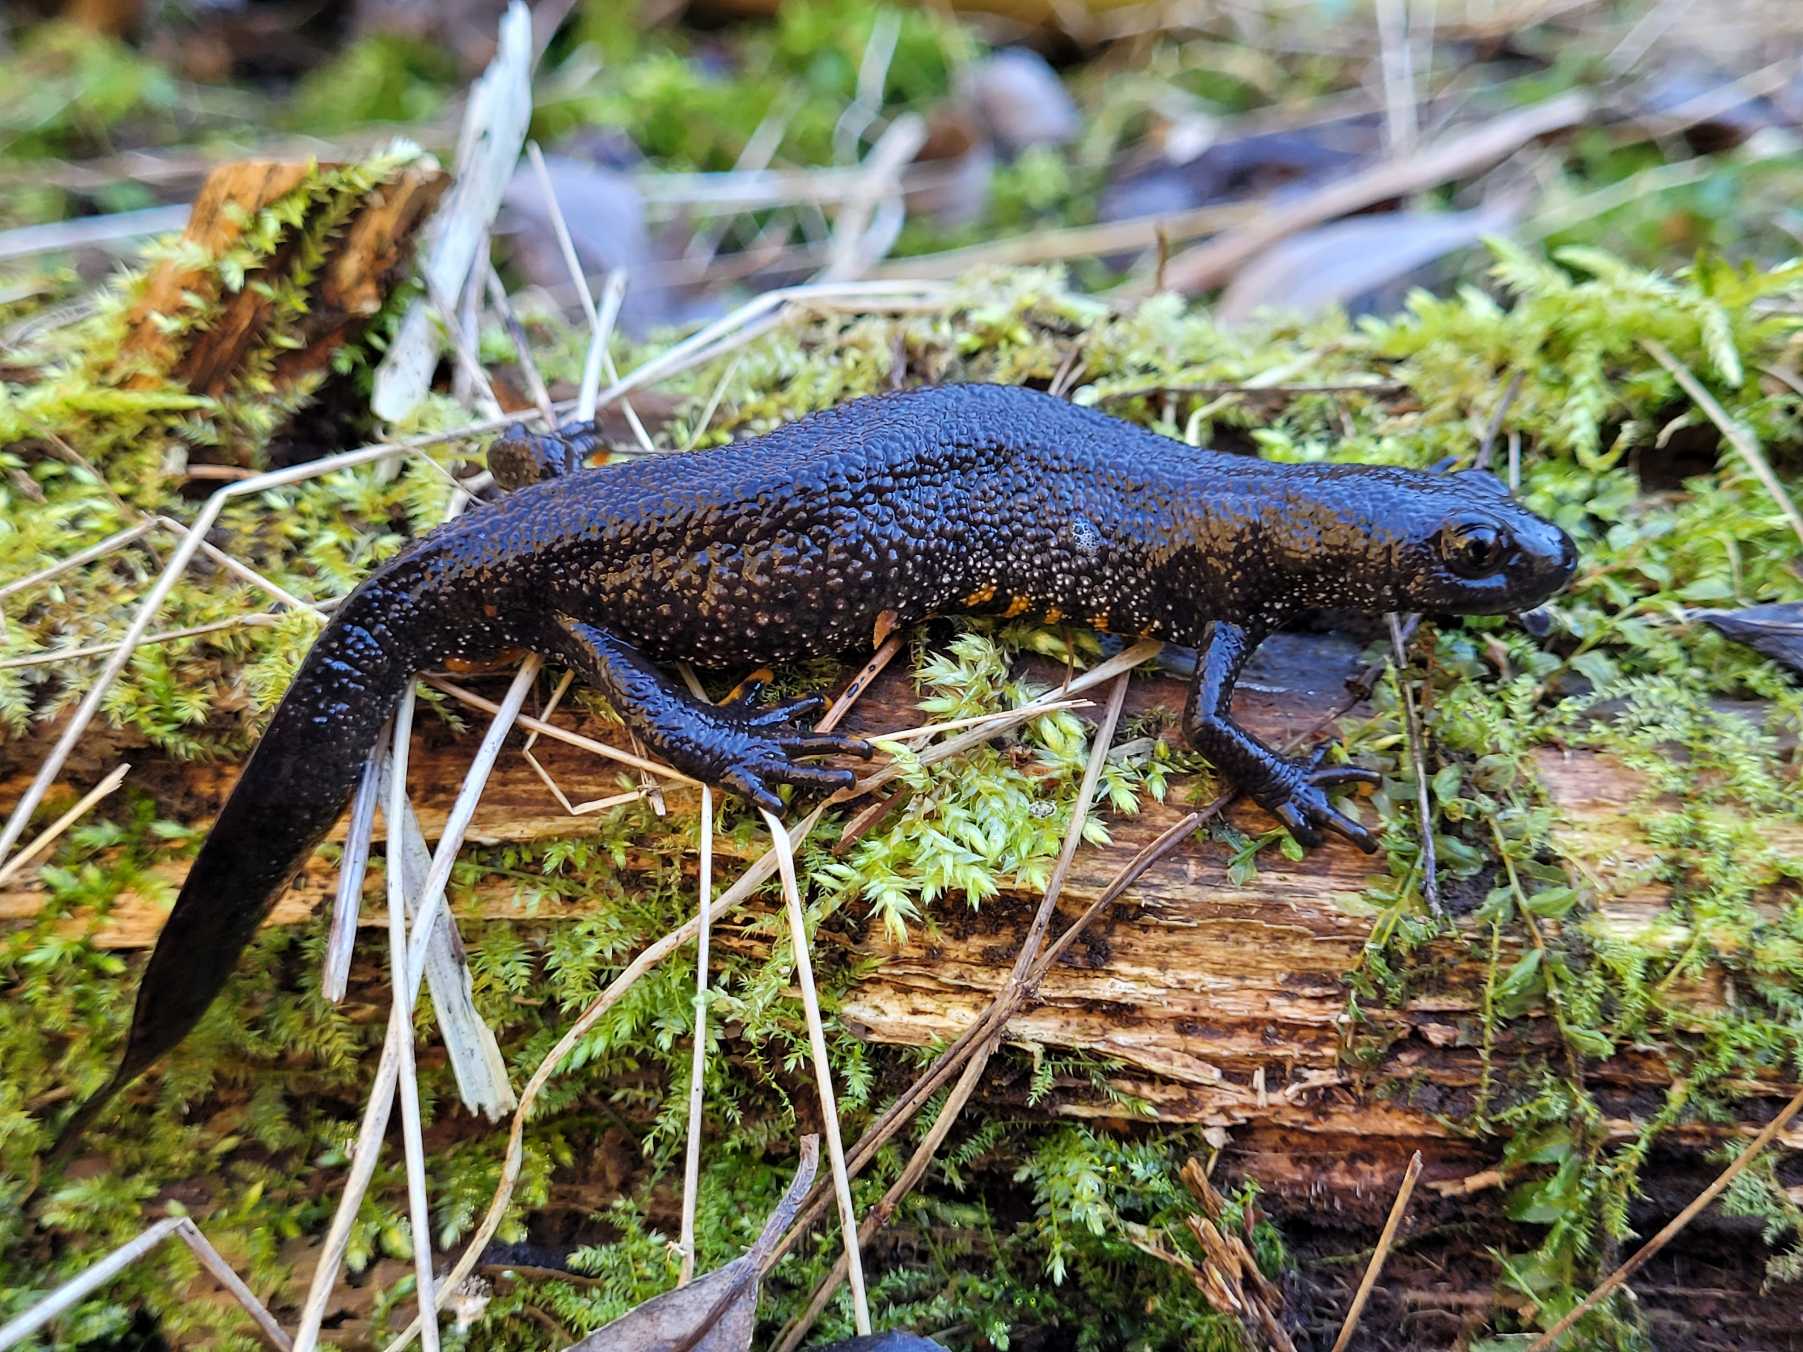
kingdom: Animalia
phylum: Chordata
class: Amphibia
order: Caudata
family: Salamandridae
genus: Triturus
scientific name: Triturus cristatus
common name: Stor vandsalamander
